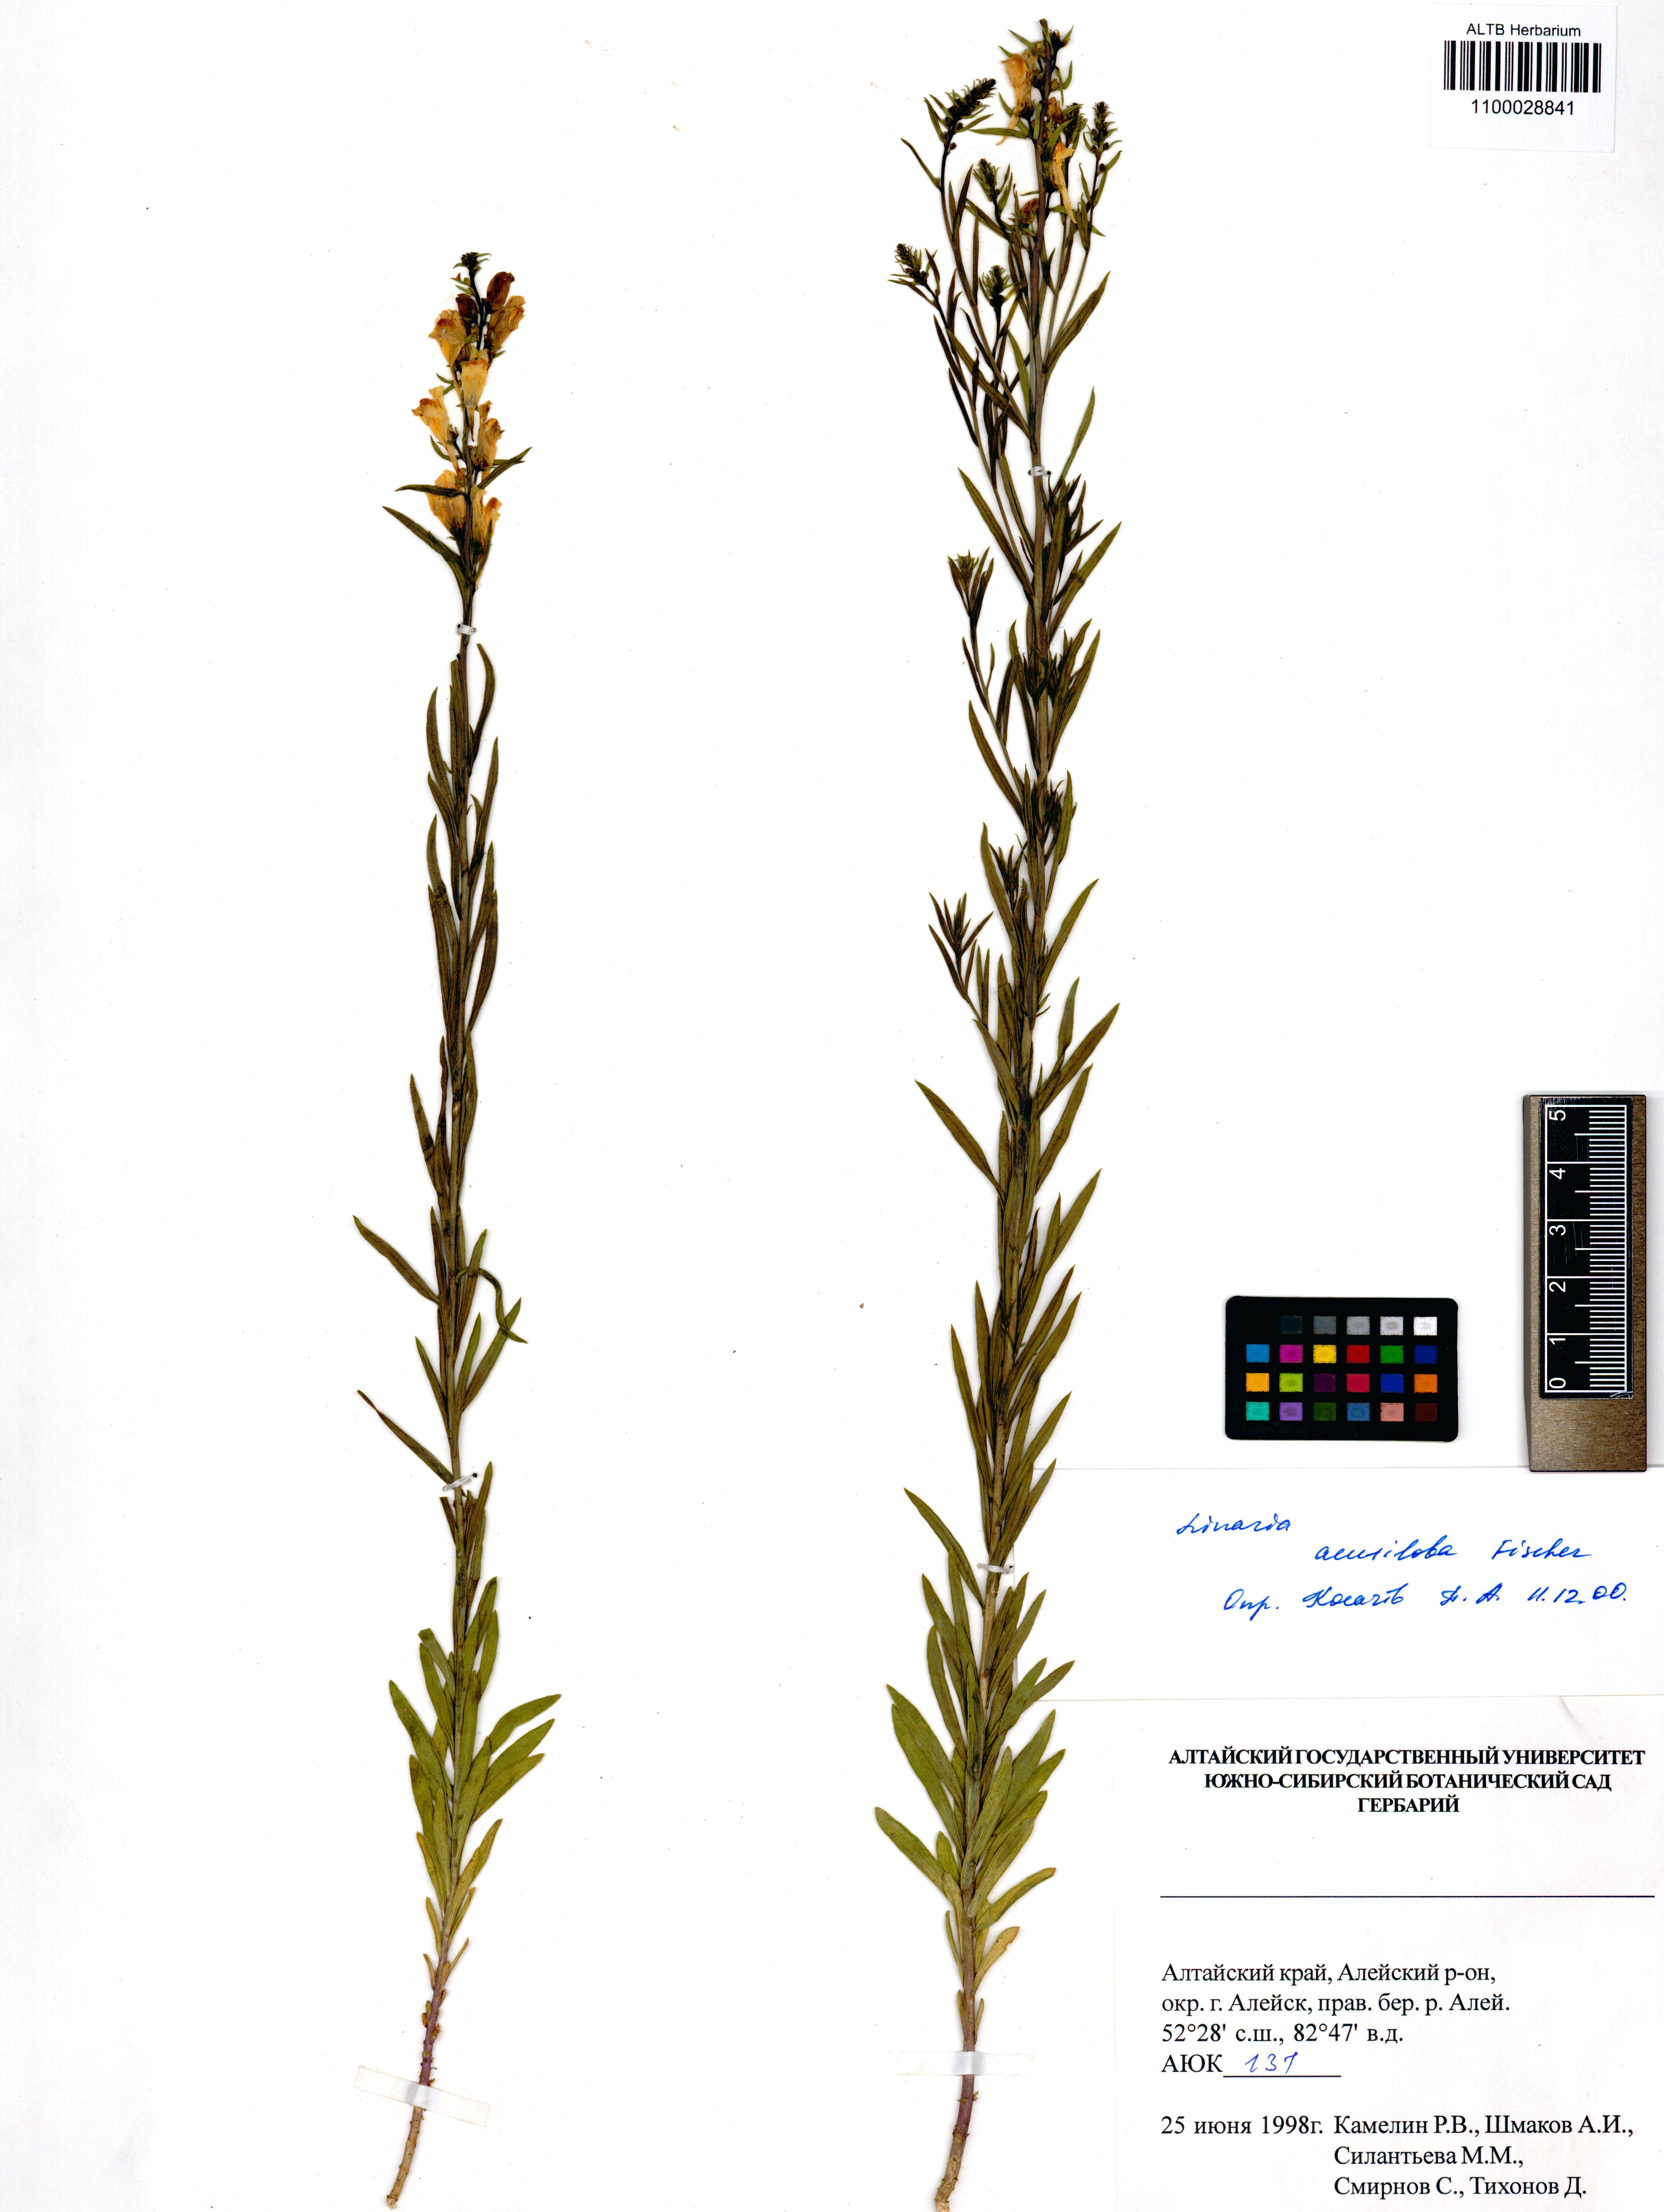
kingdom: Plantae
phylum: Tracheophyta
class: Magnoliopsida
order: Lamiales
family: Plantaginaceae
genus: Linaria
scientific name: Linaria acutiloba
